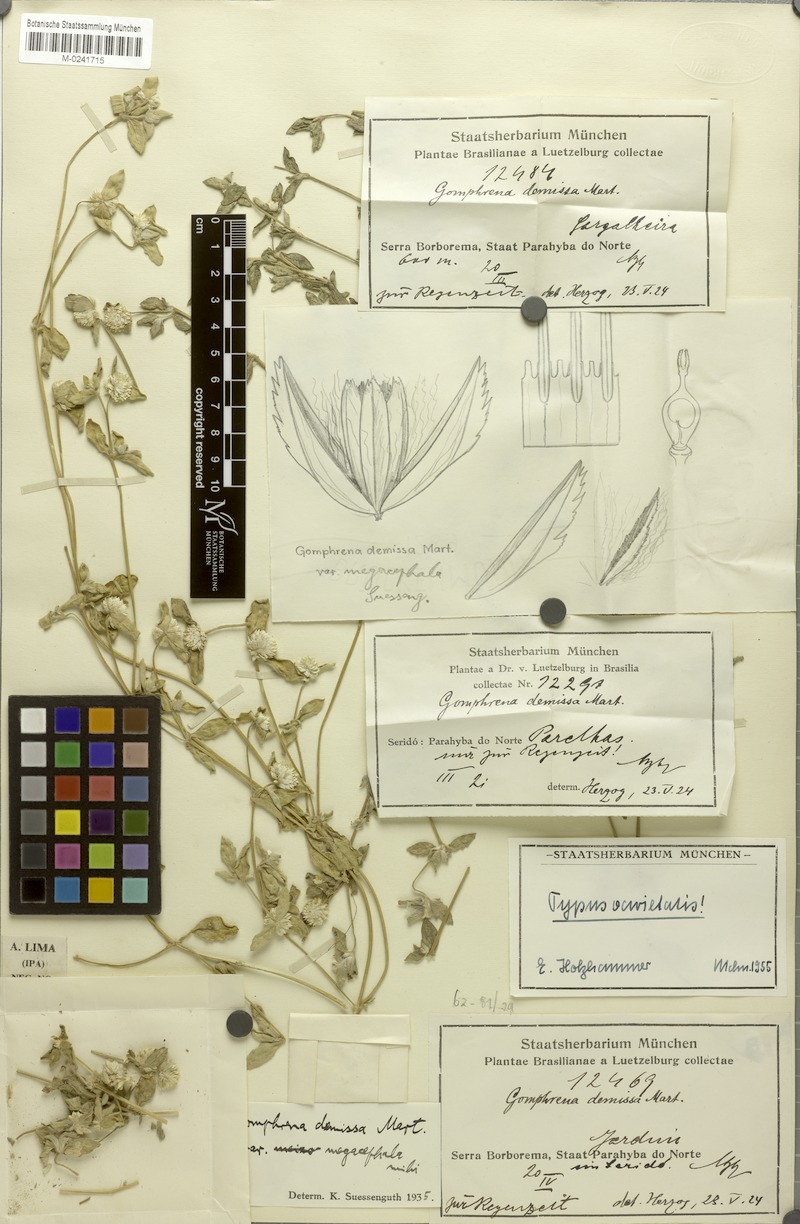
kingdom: Plantae
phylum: Tracheophyta
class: Magnoliopsida
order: Caryophyllales
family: Amaranthaceae
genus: Gomphrena
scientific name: Gomphrena demissa
